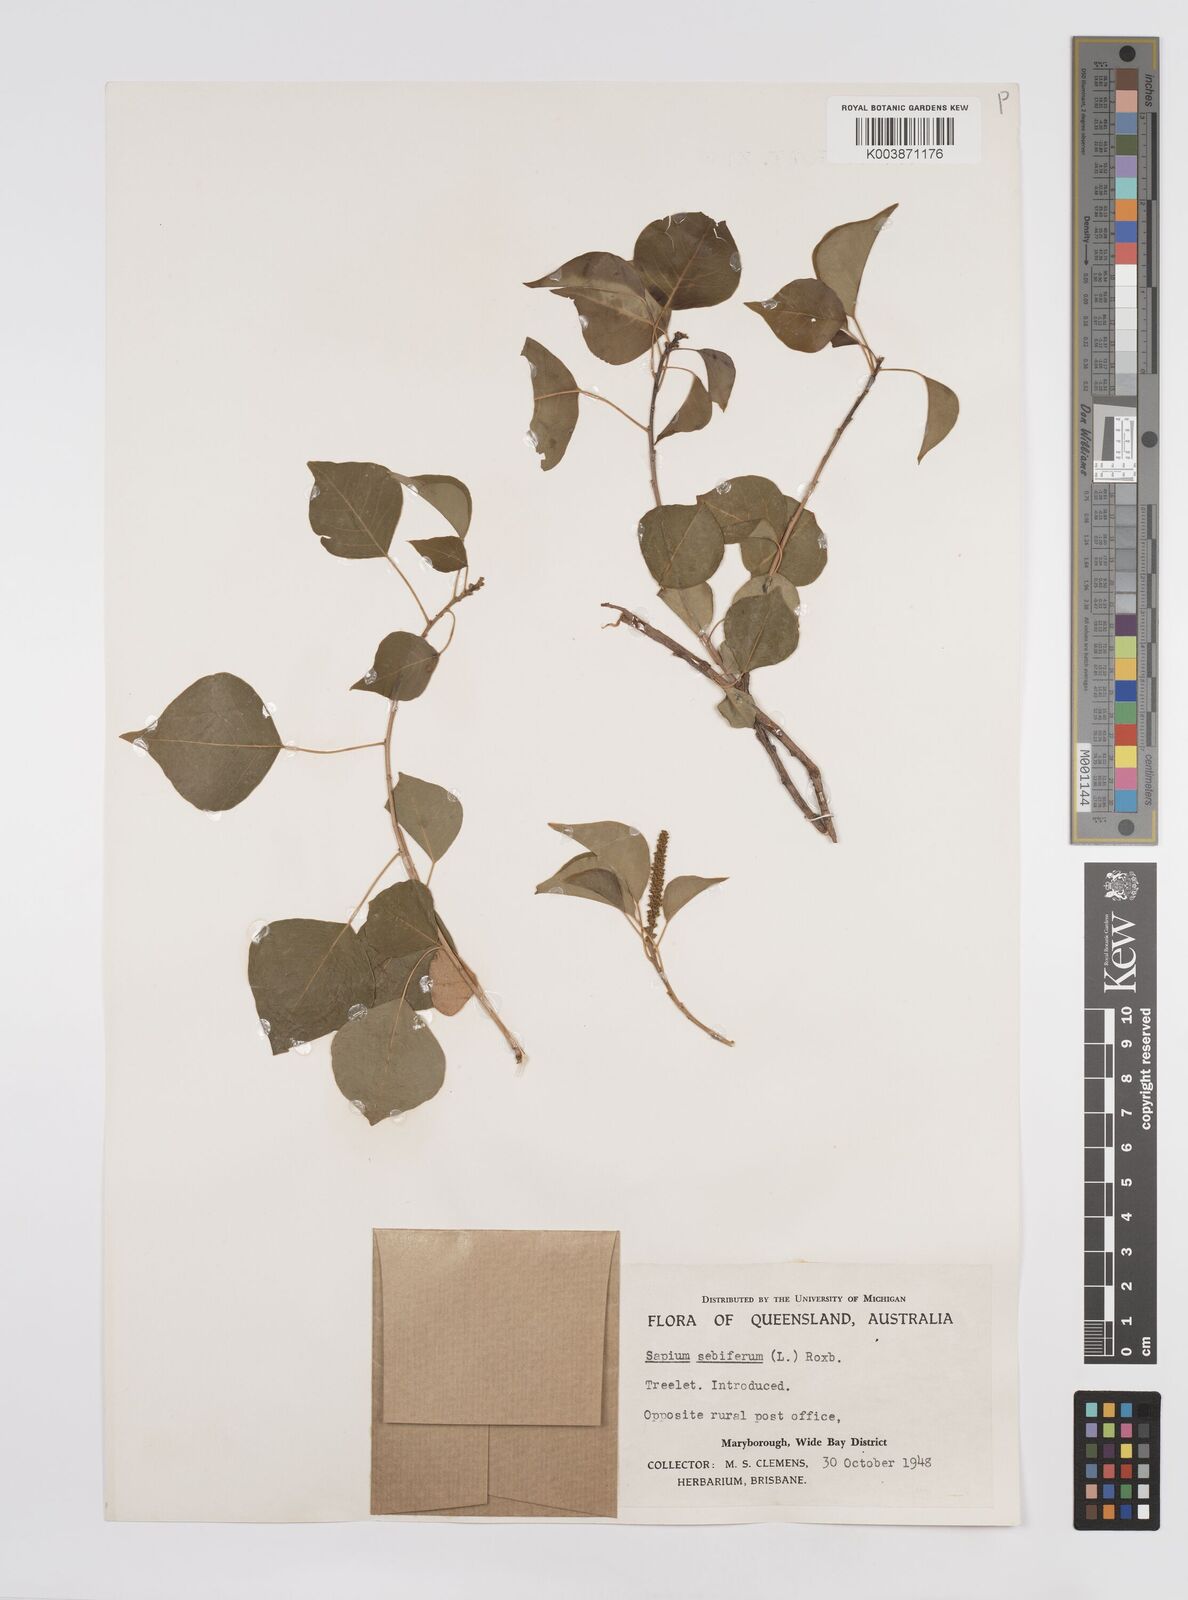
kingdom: Plantae
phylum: Tracheophyta
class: Magnoliopsida
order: Malpighiales
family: Euphorbiaceae
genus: Triadica
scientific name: Triadica sebifera
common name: Chinese tallow
